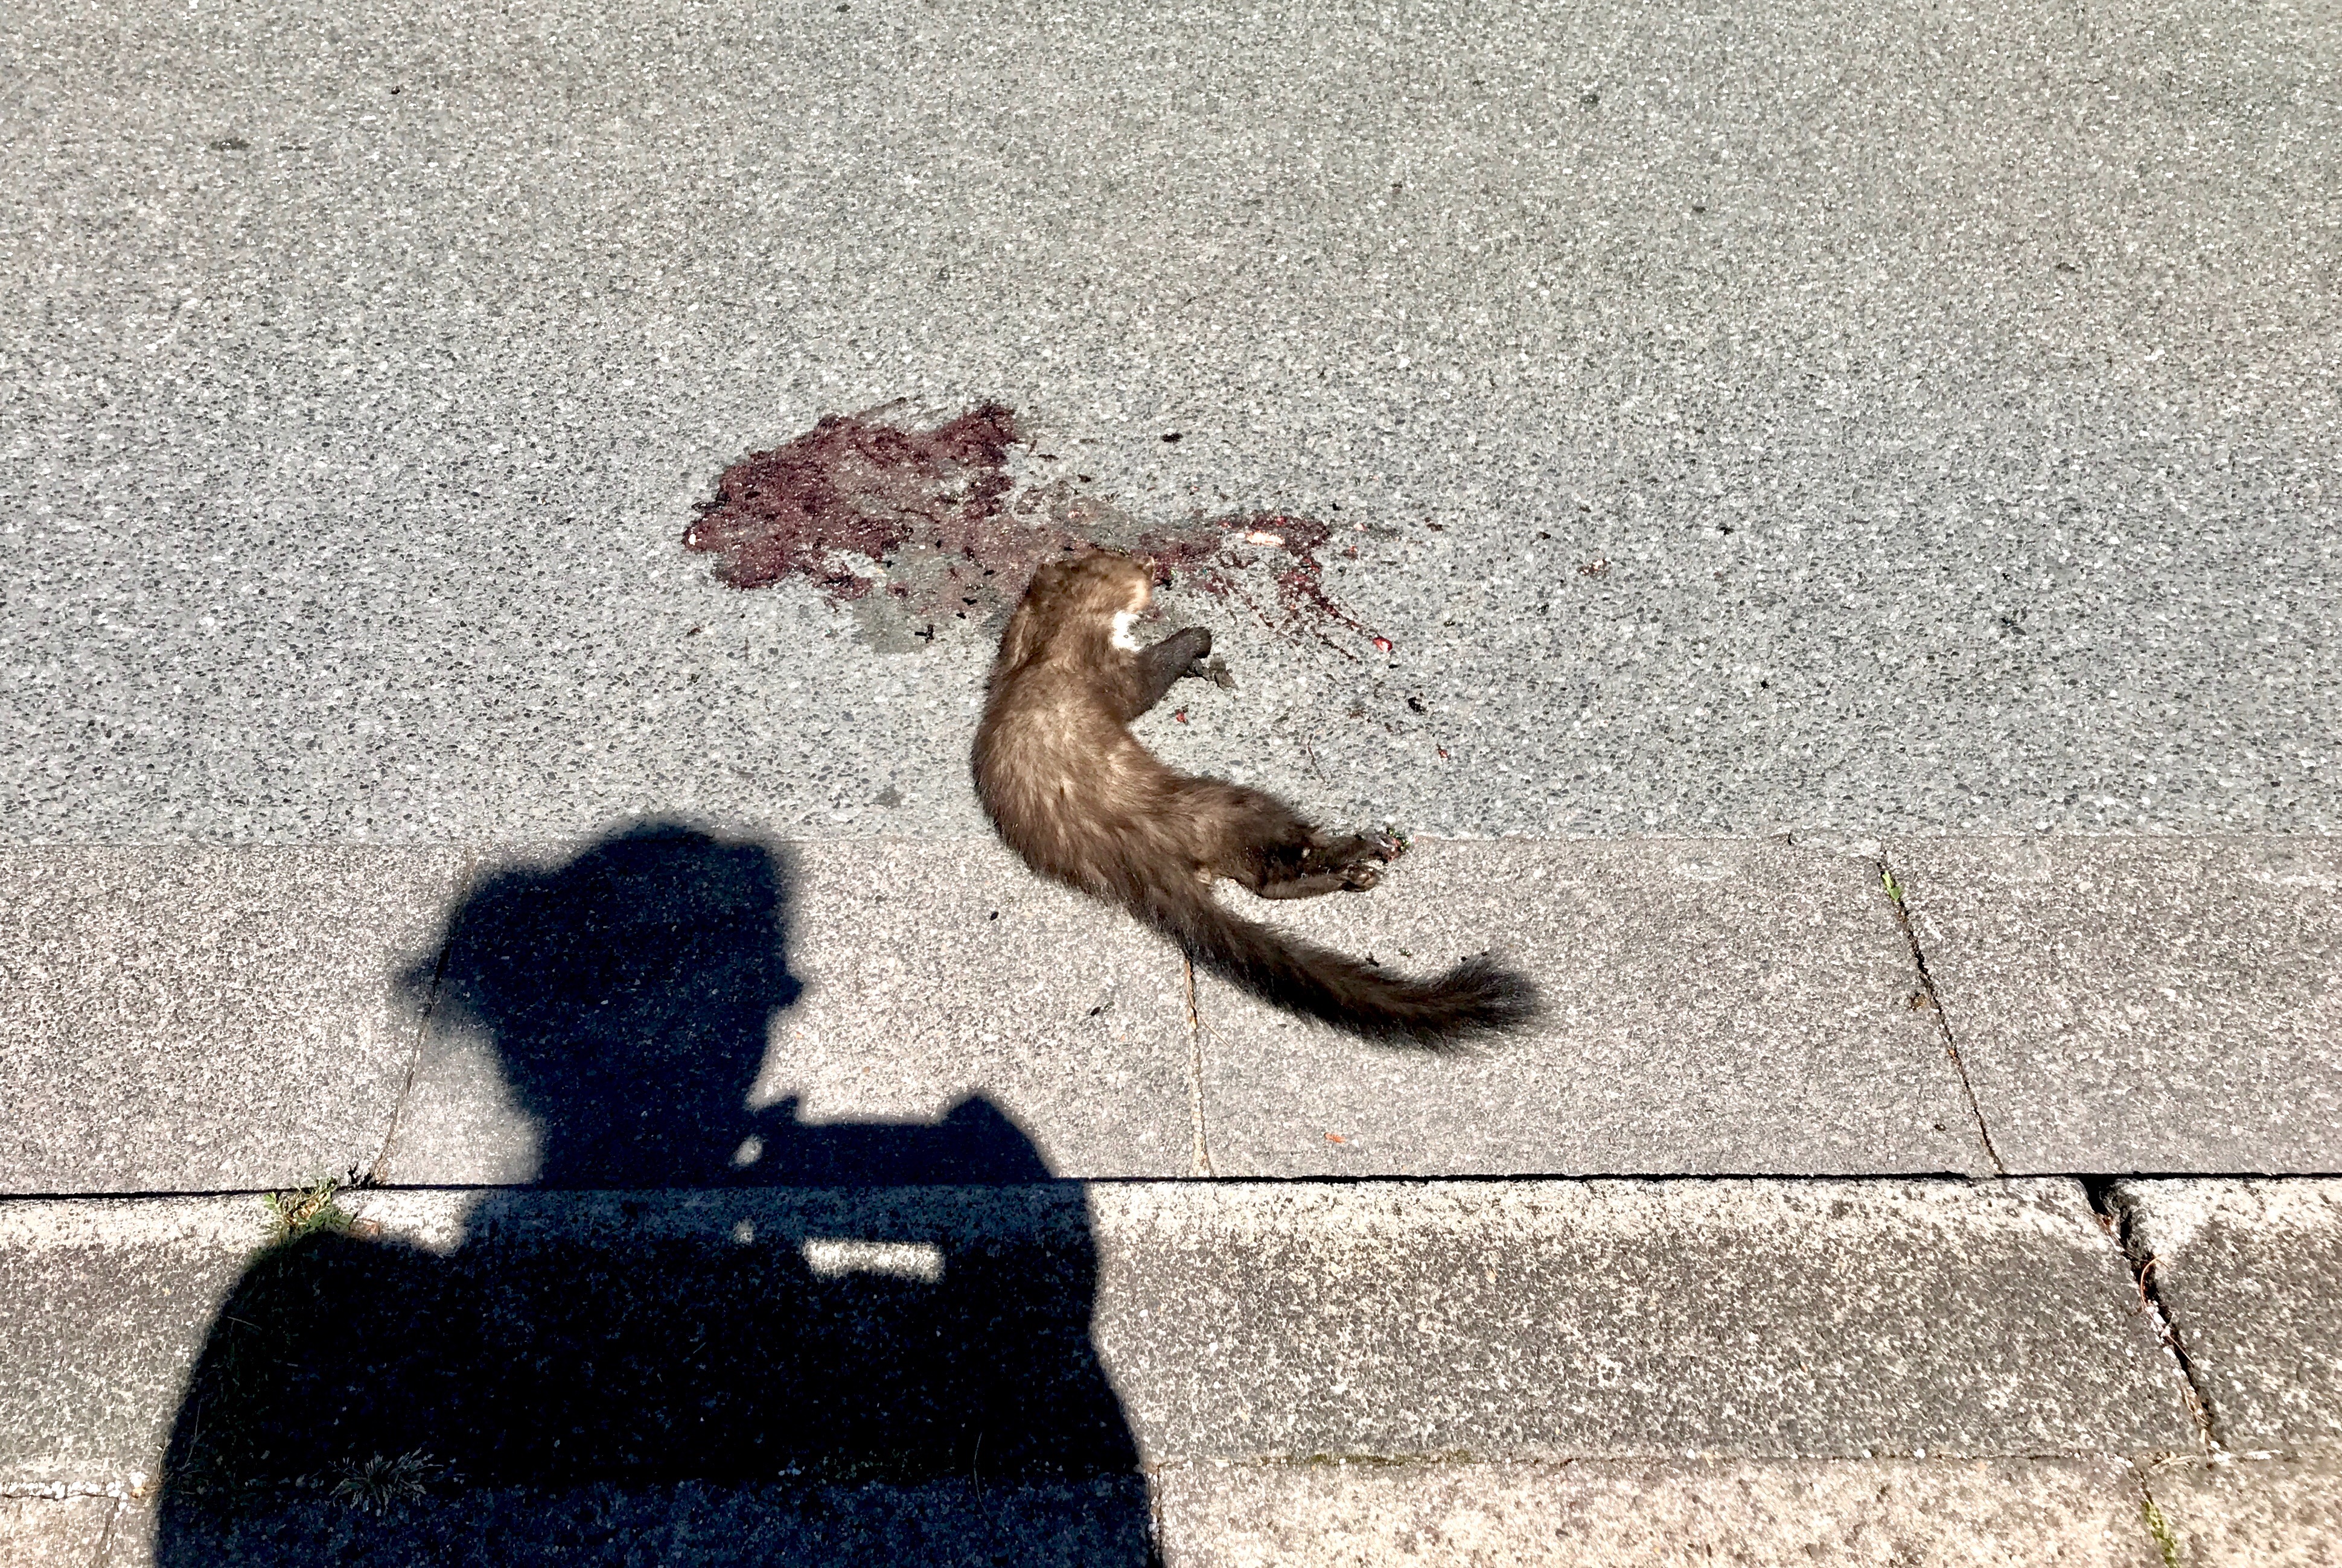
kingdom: Animalia
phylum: Chordata
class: Mammalia
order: Carnivora
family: Mustelidae
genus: Martes
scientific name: Martes foina
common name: Beech marten
